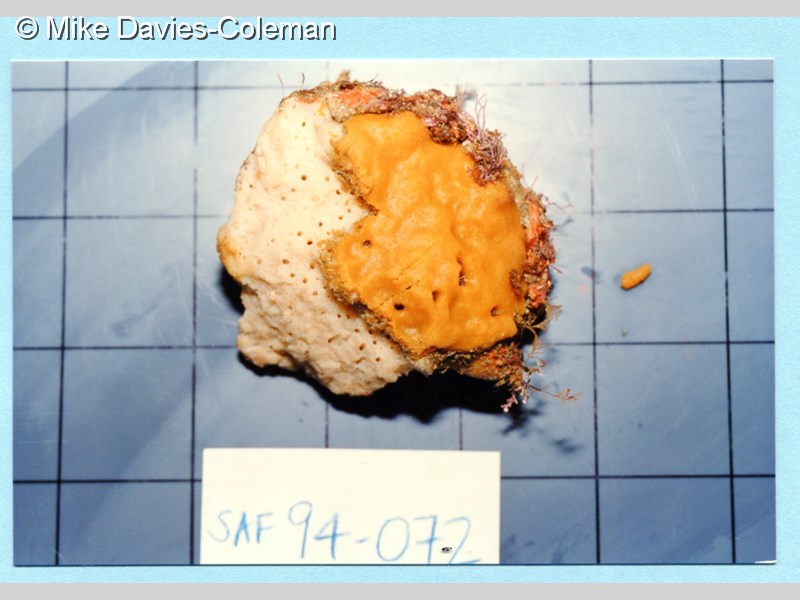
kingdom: Animalia
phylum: Porifera
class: Demospongiae
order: Tetractinellida
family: Pachastrellidae
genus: Pachastrella
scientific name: Pachastrella monilifera
